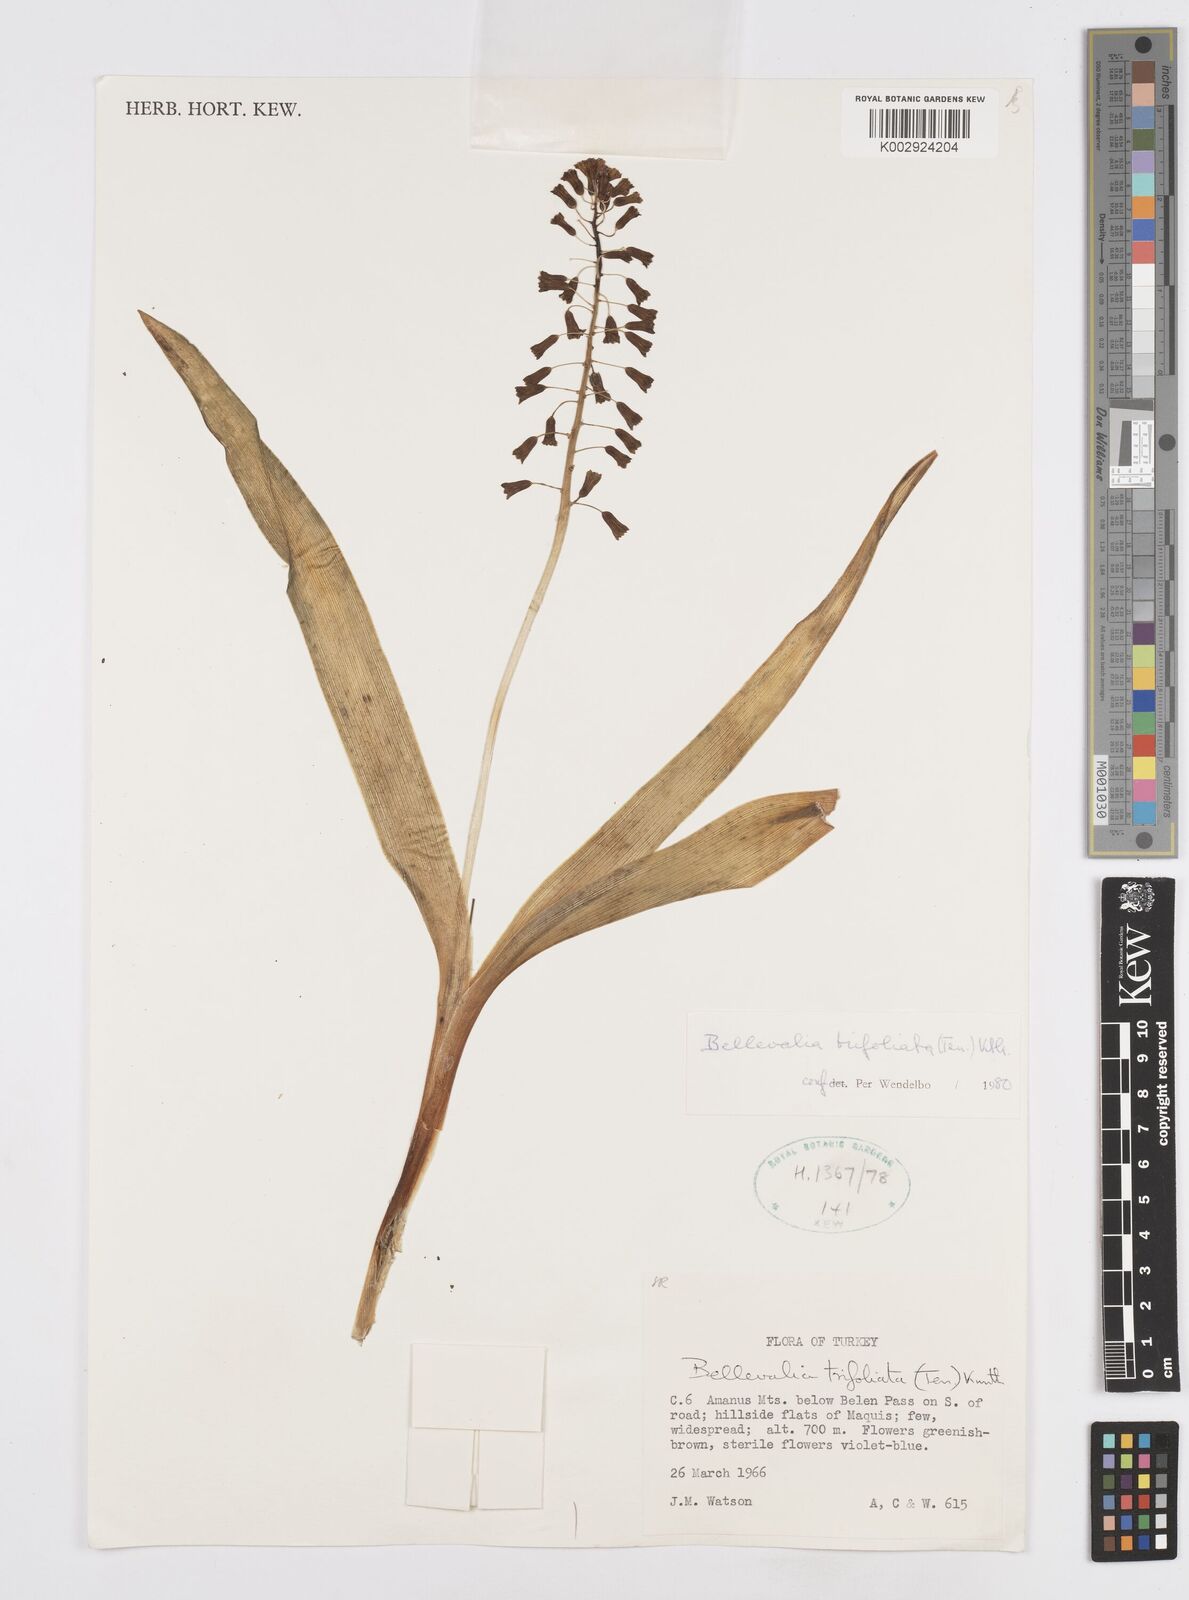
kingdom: Plantae
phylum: Tracheophyta
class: Liliopsida
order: Asparagales
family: Asparagaceae
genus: Bellevalia
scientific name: Bellevalia trifoliata
